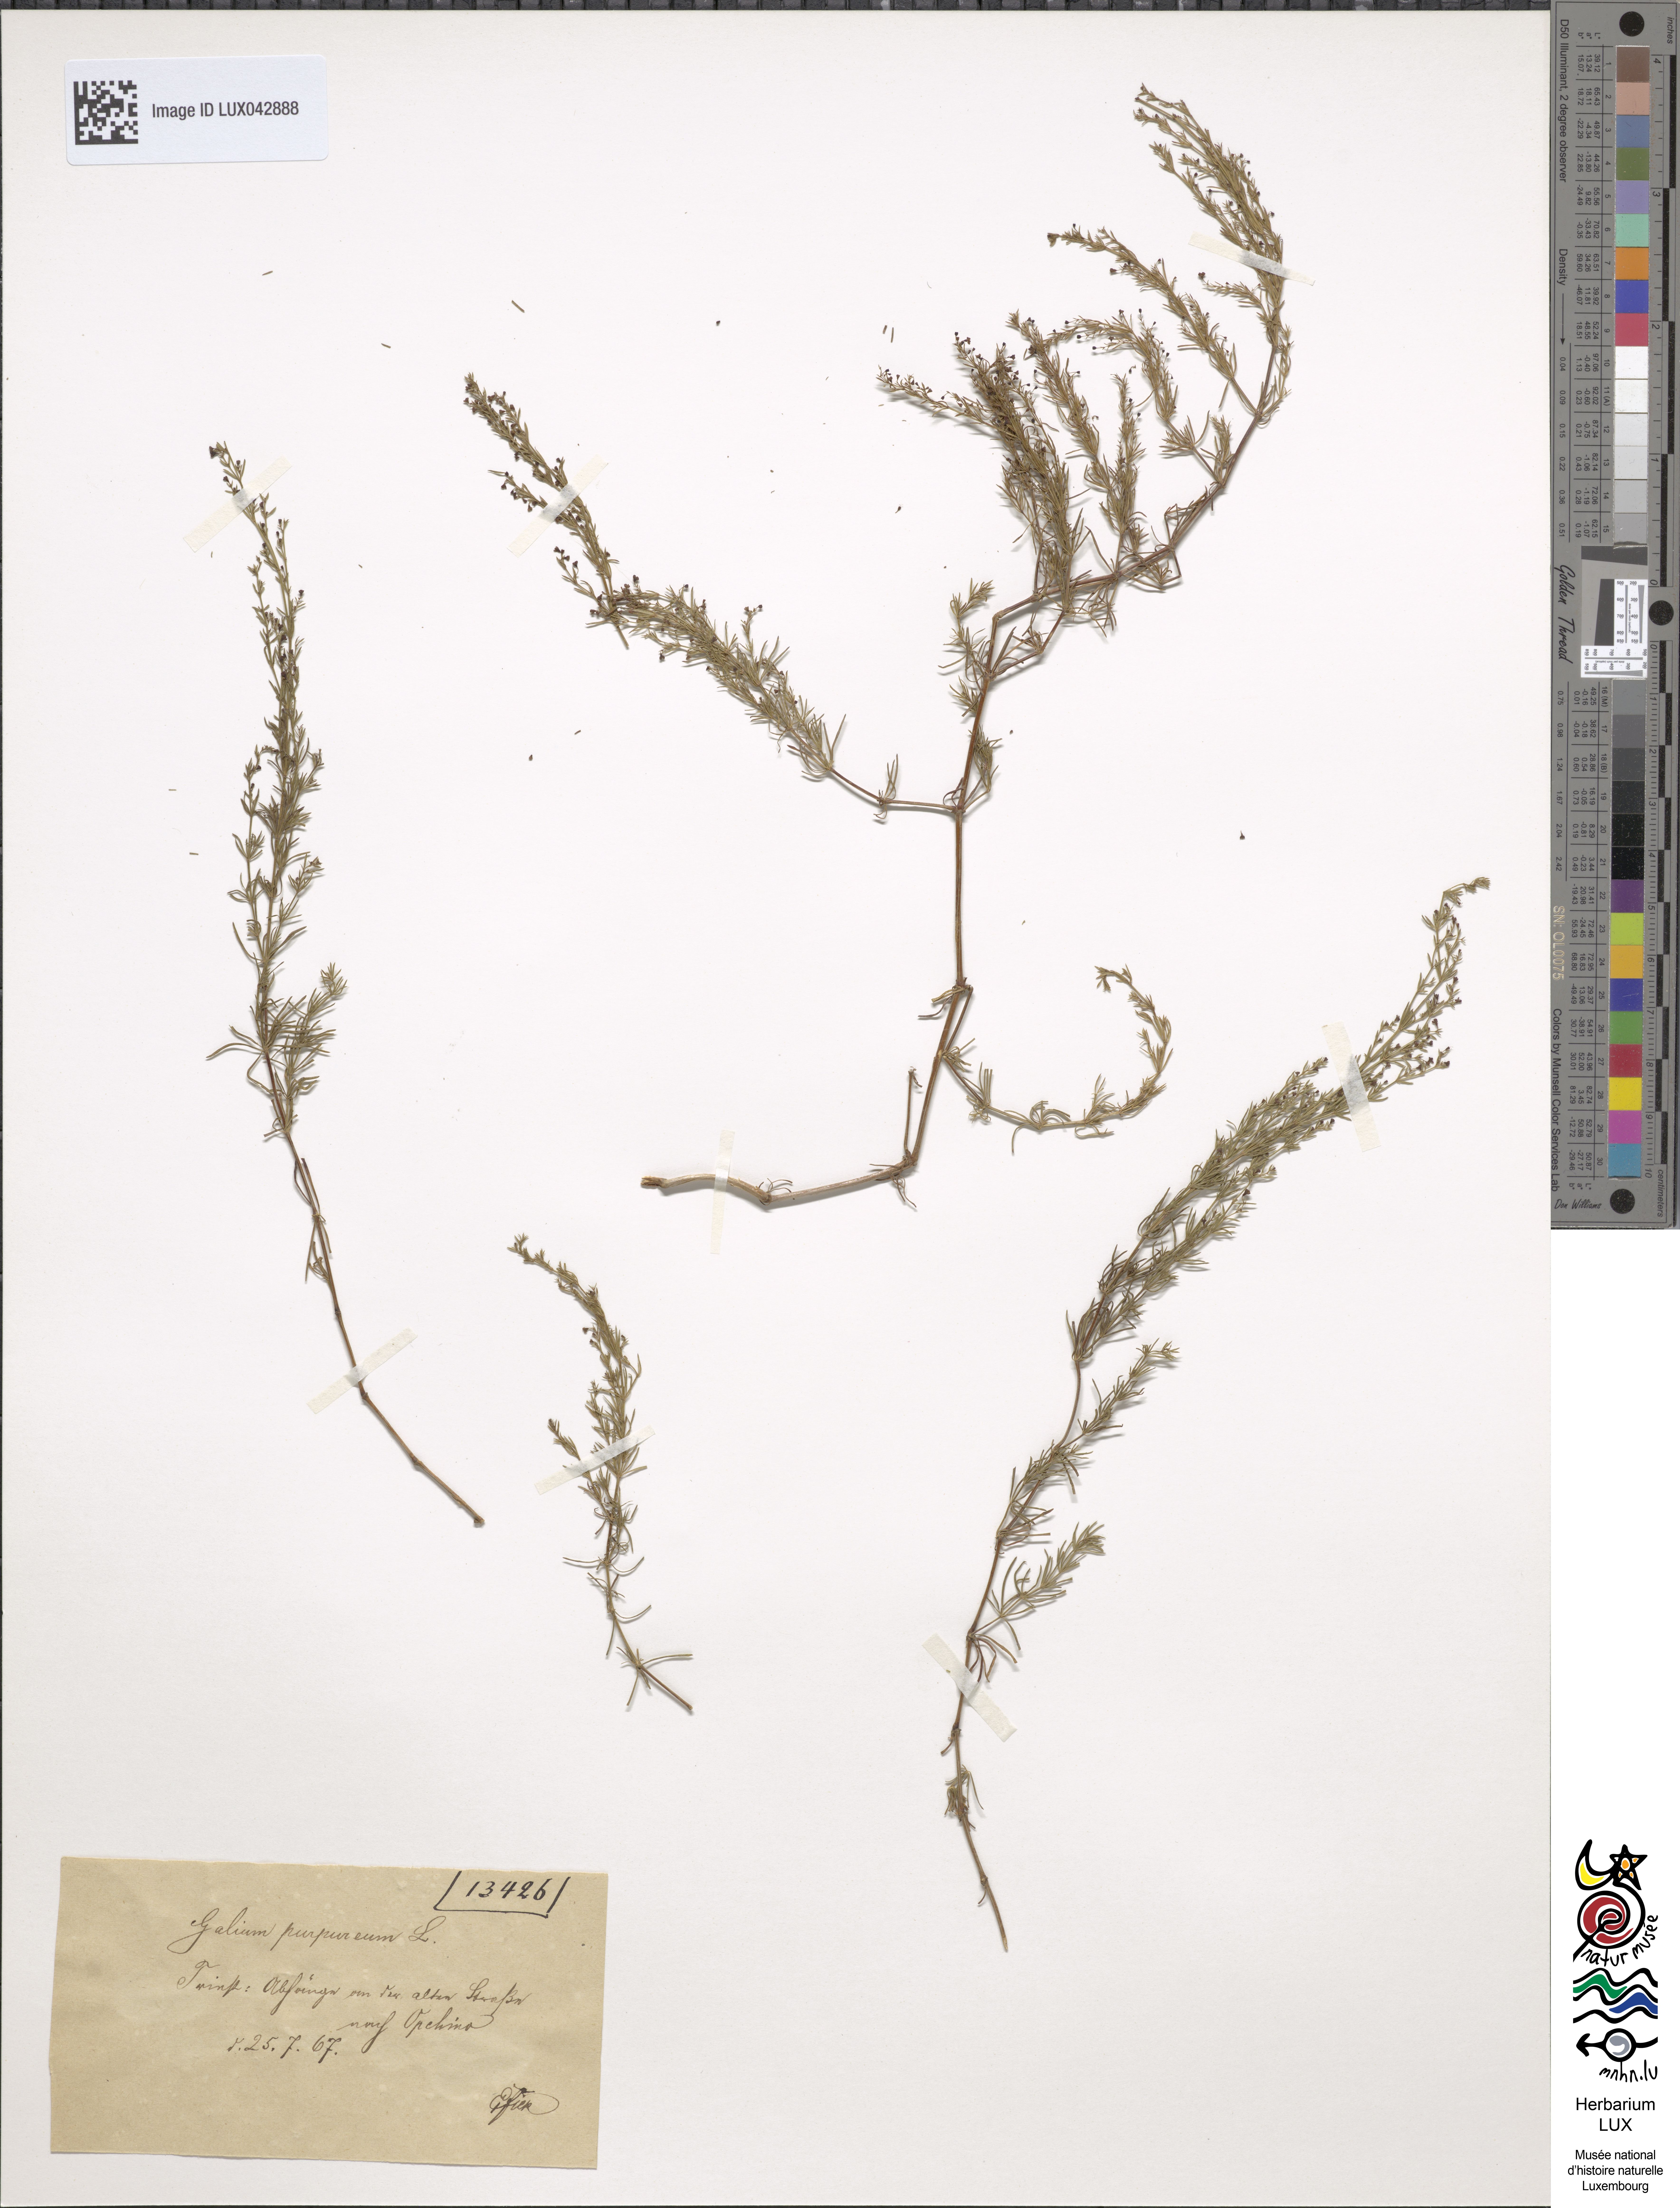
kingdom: Plantae
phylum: Tracheophyta
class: Magnoliopsida
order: Gentianales
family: Rubiaceae
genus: Thliphthisa
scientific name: Thliphthisa purpurea
